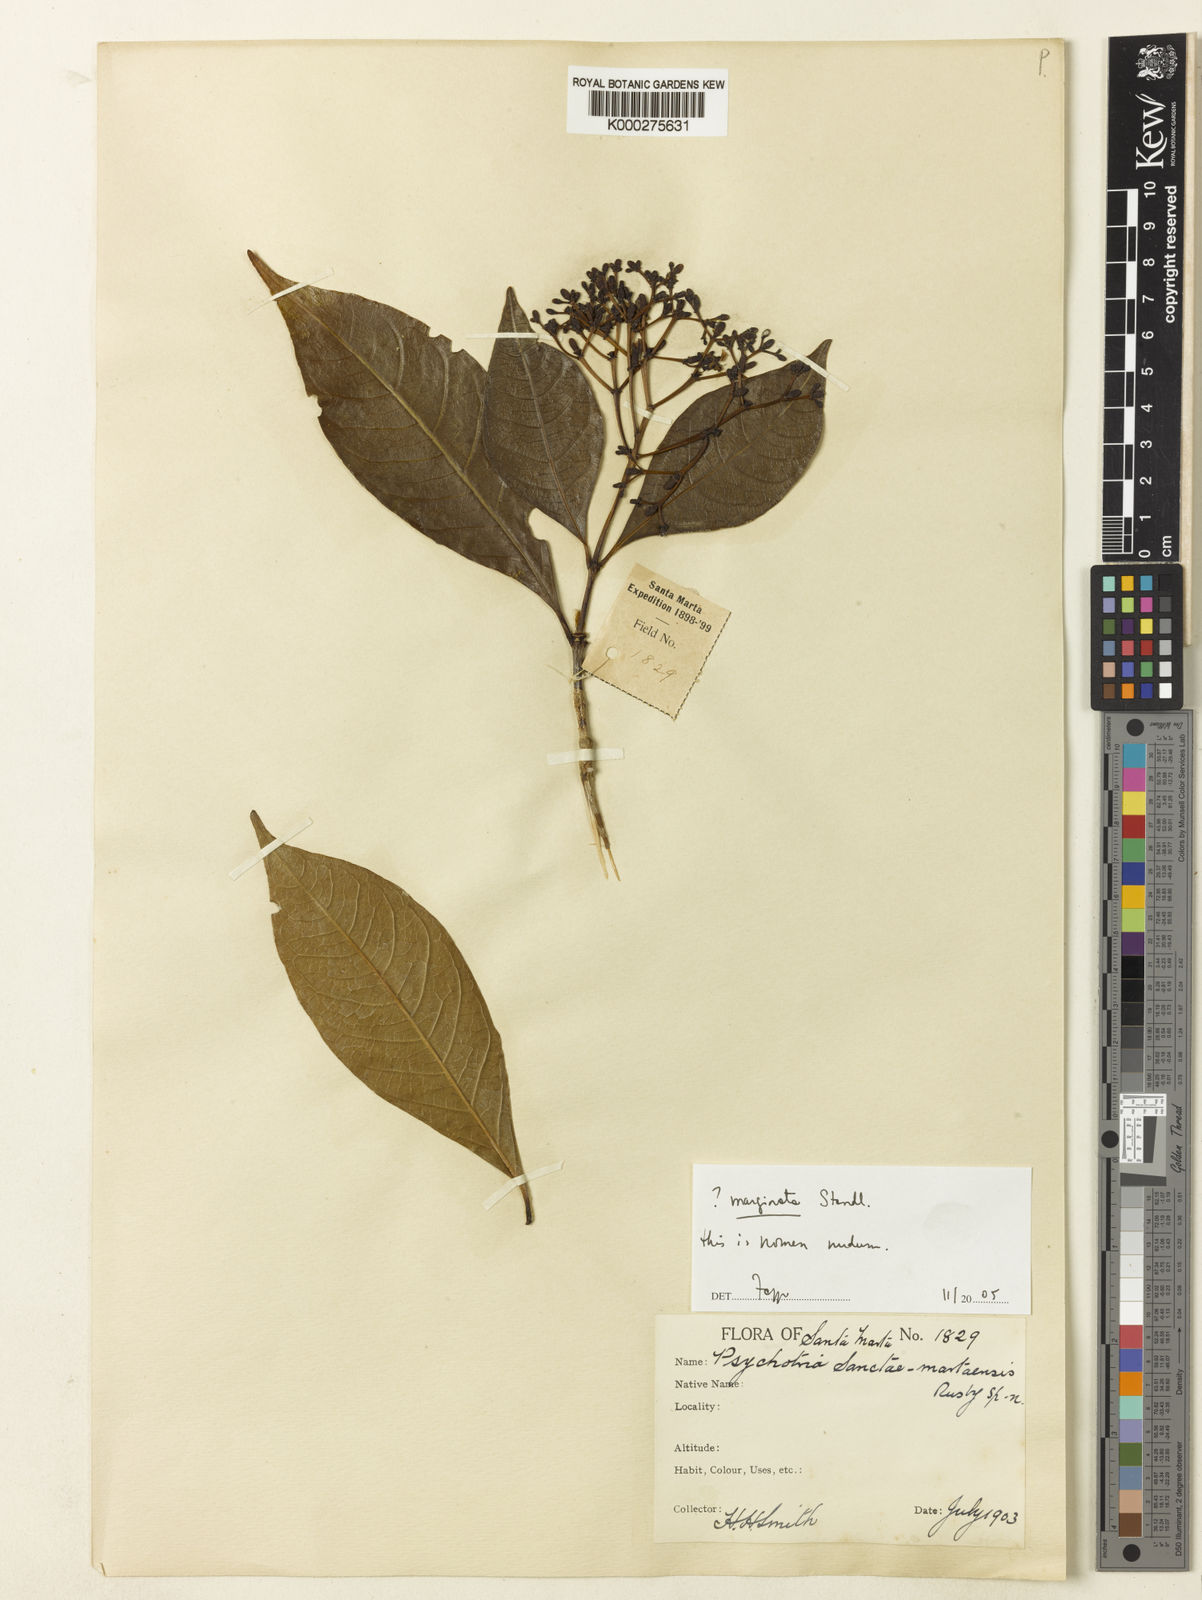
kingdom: Plantae
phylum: Tracheophyta
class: Magnoliopsida
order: Gentianales
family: Rubiaceae
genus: Rudgea
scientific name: Rudgea marginata
